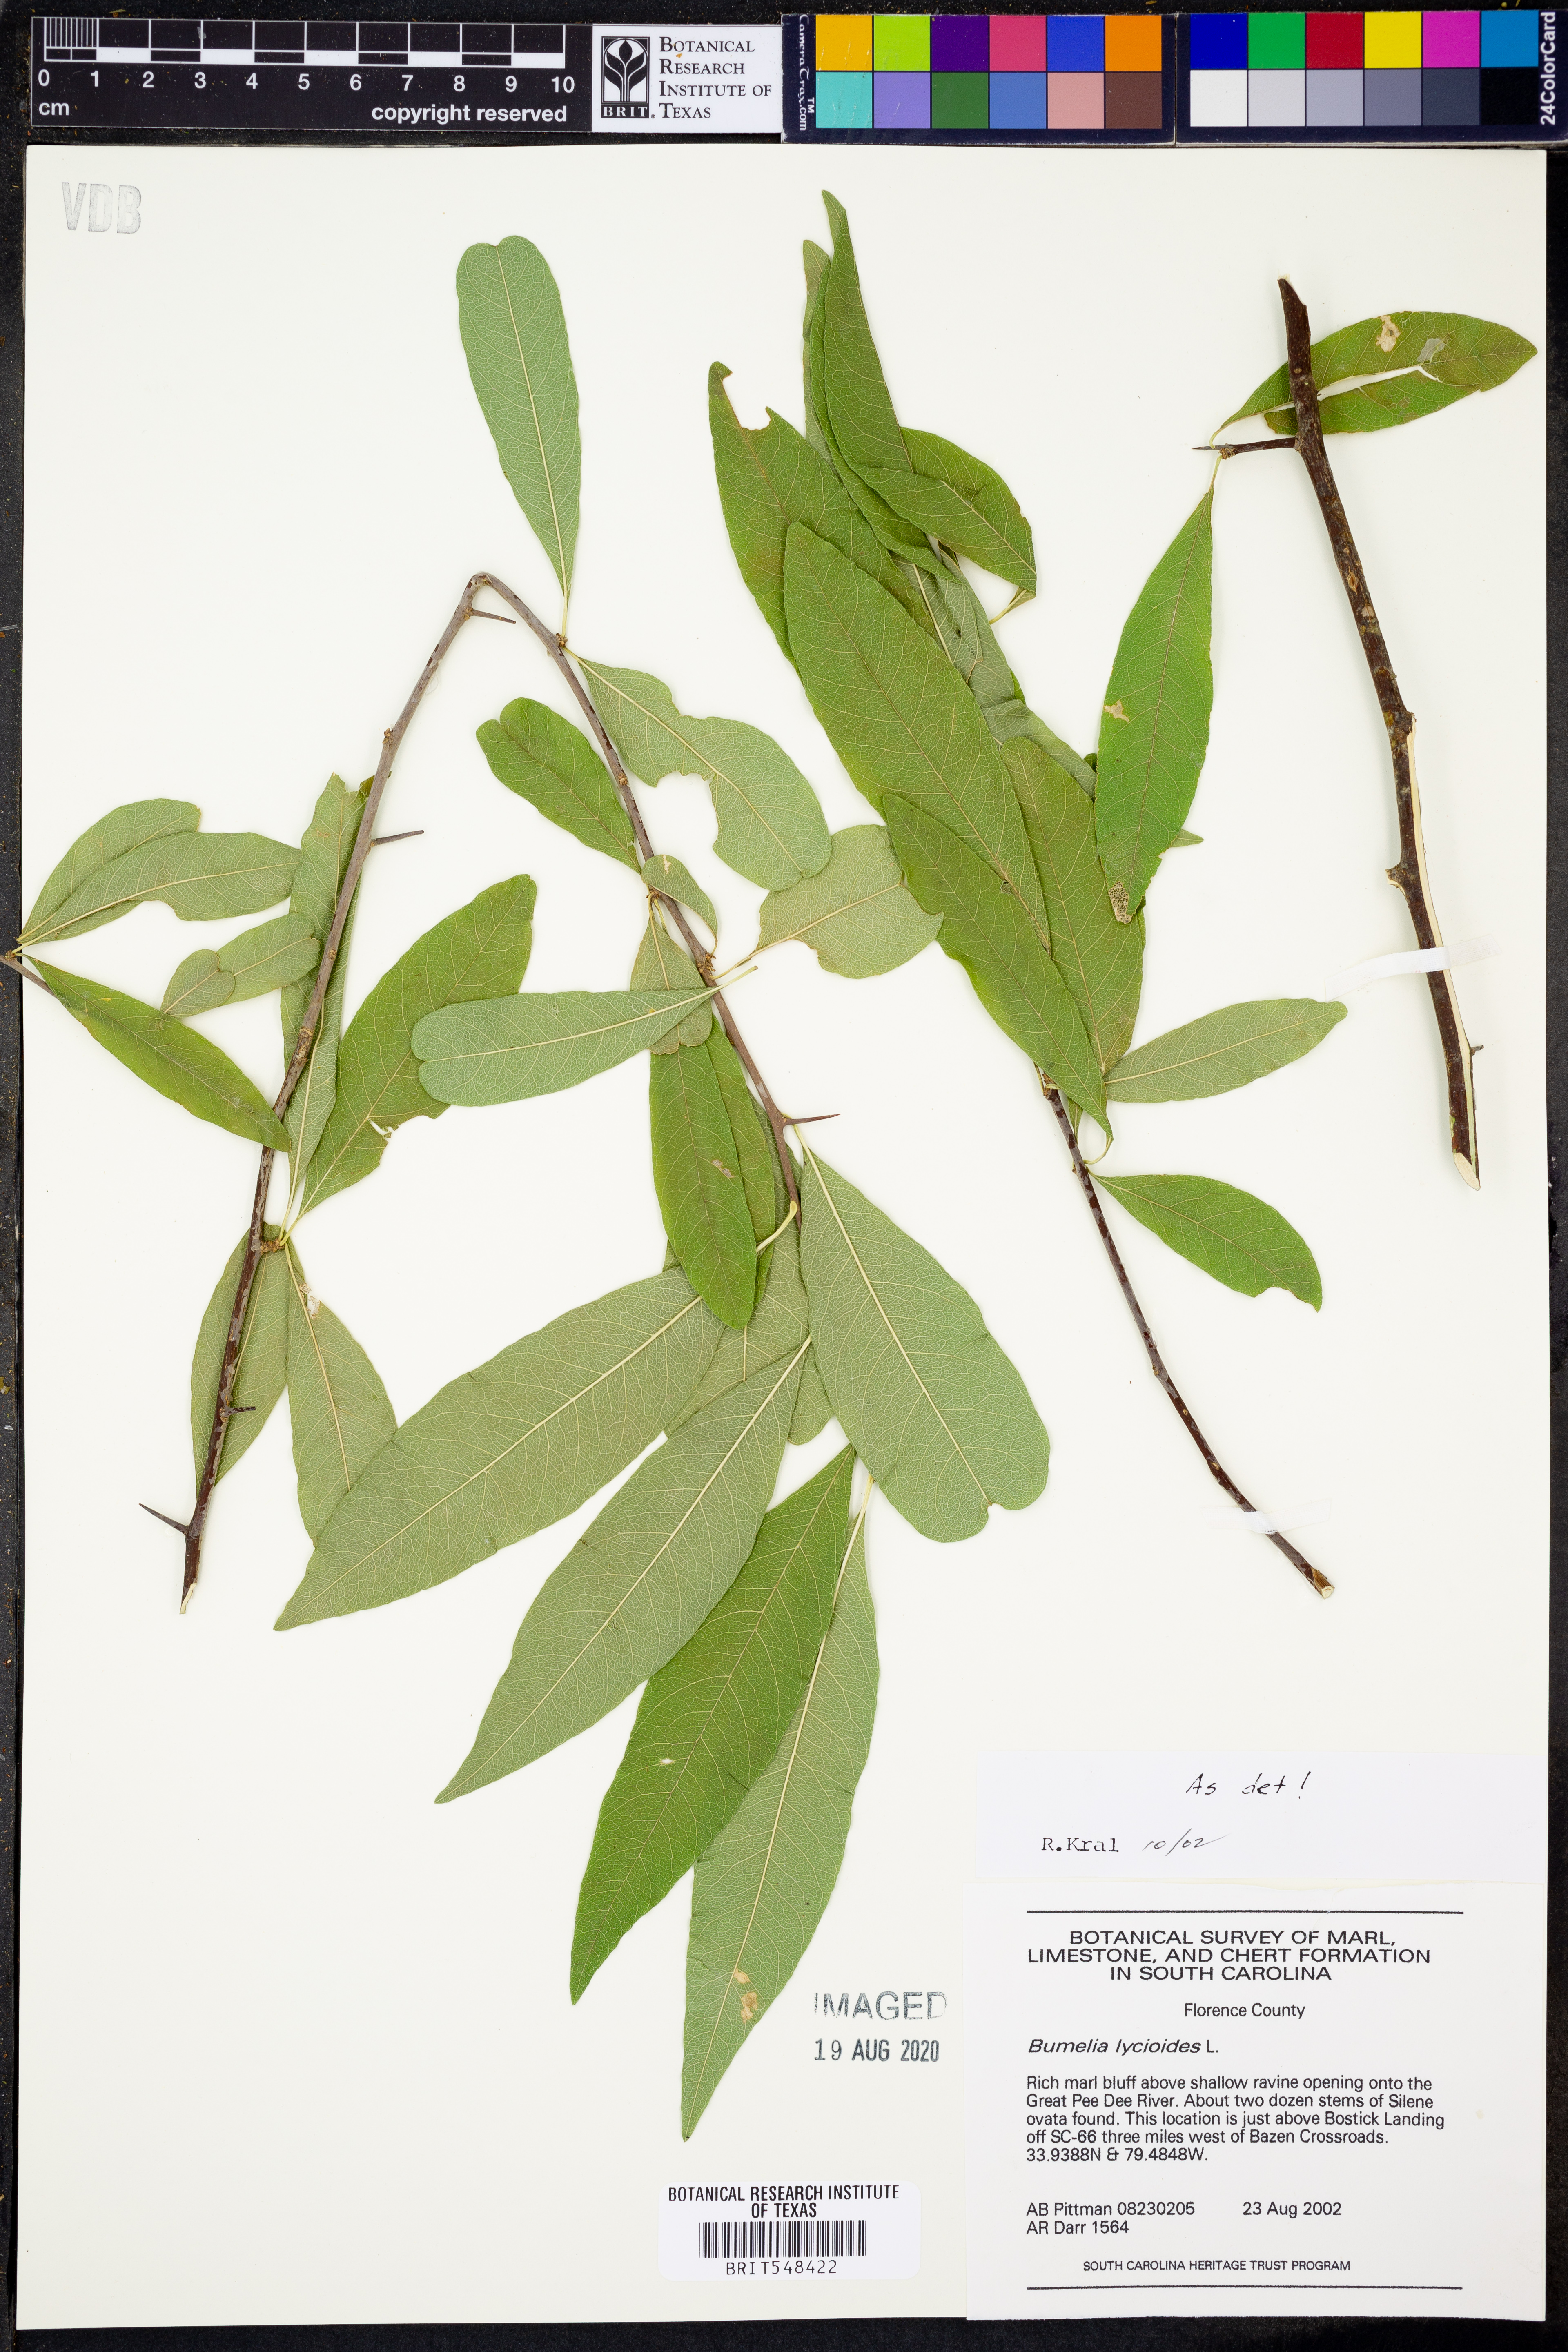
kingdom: Plantae
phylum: Tracheophyta
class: Magnoliopsida
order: Ericales
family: Sapotaceae
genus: Sideroxylon
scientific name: Sideroxylon lycioides
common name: Buckthorn bumelia
